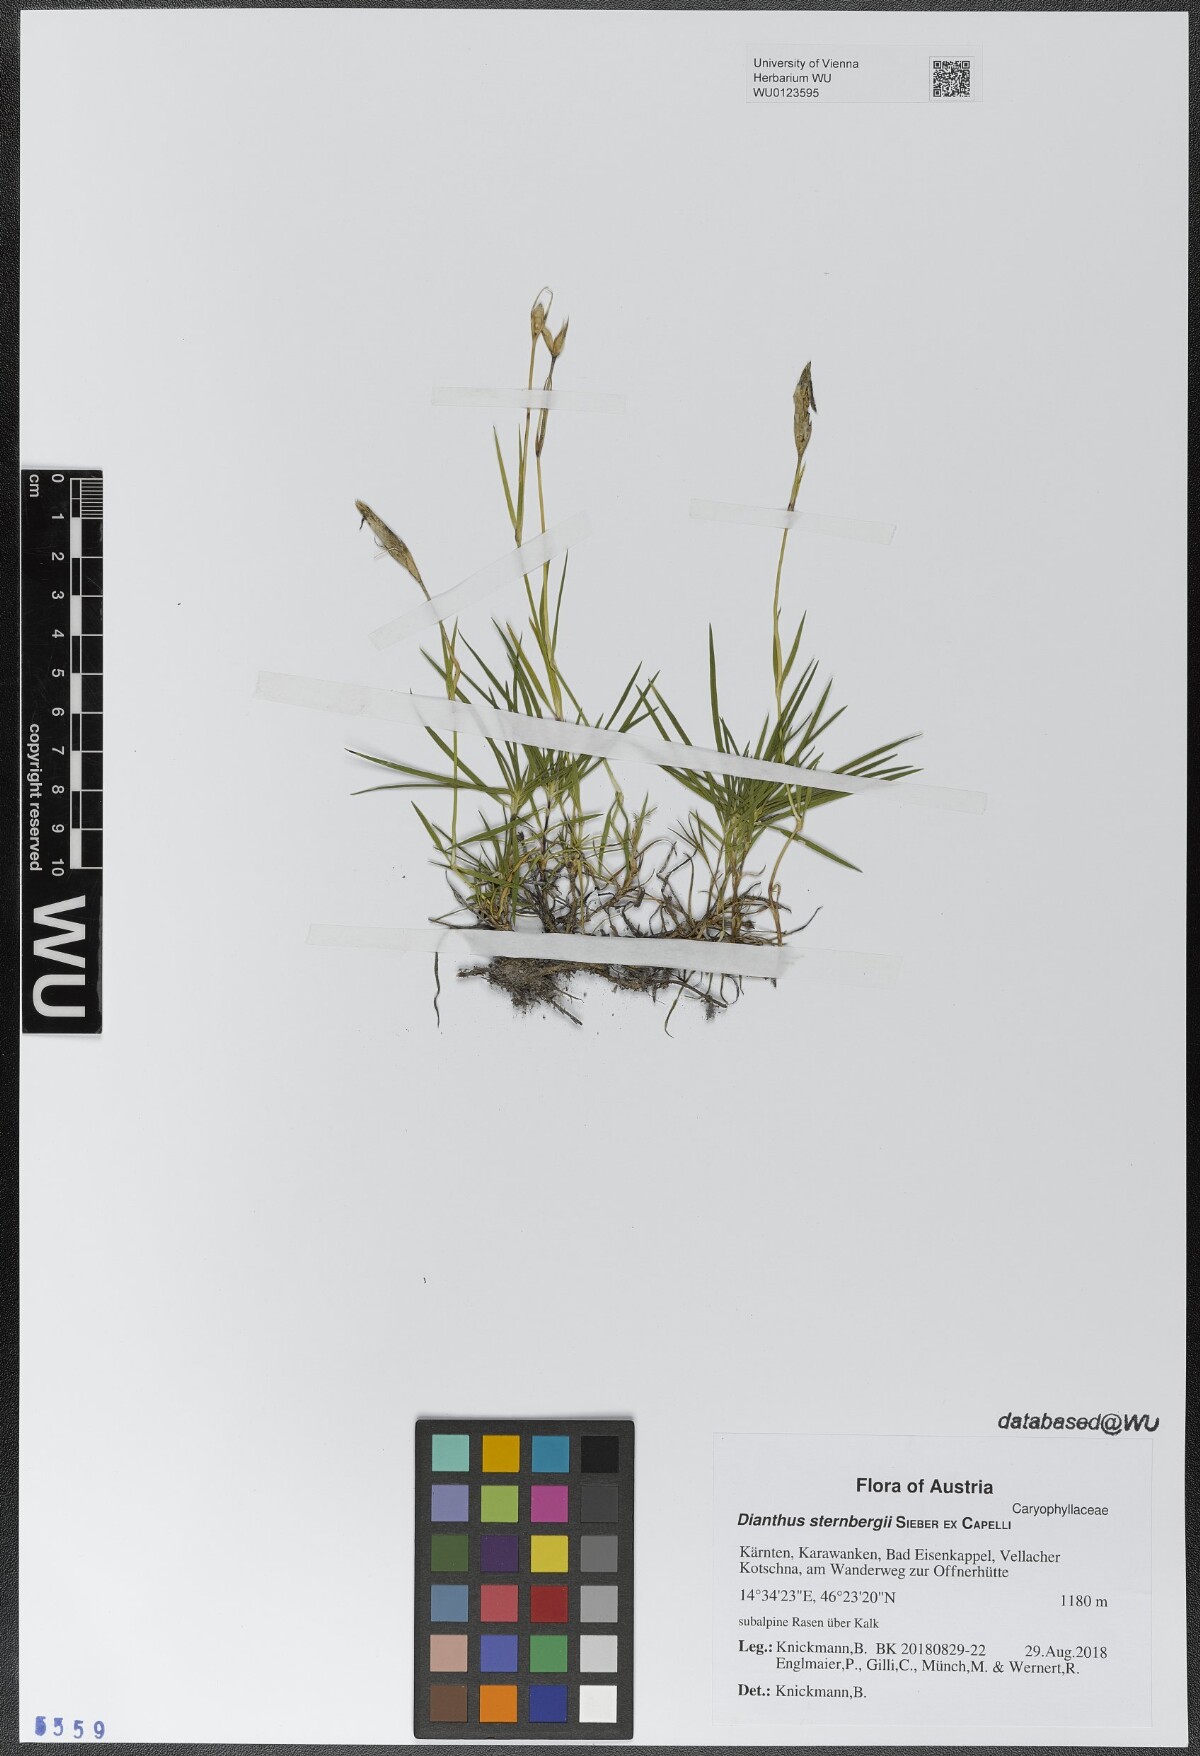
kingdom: Plantae
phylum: Tracheophyta
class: Magnoliopsida
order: Caryophyllales
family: Caryophyllaceae
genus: Dianthus
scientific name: Dianthus sternbergii
